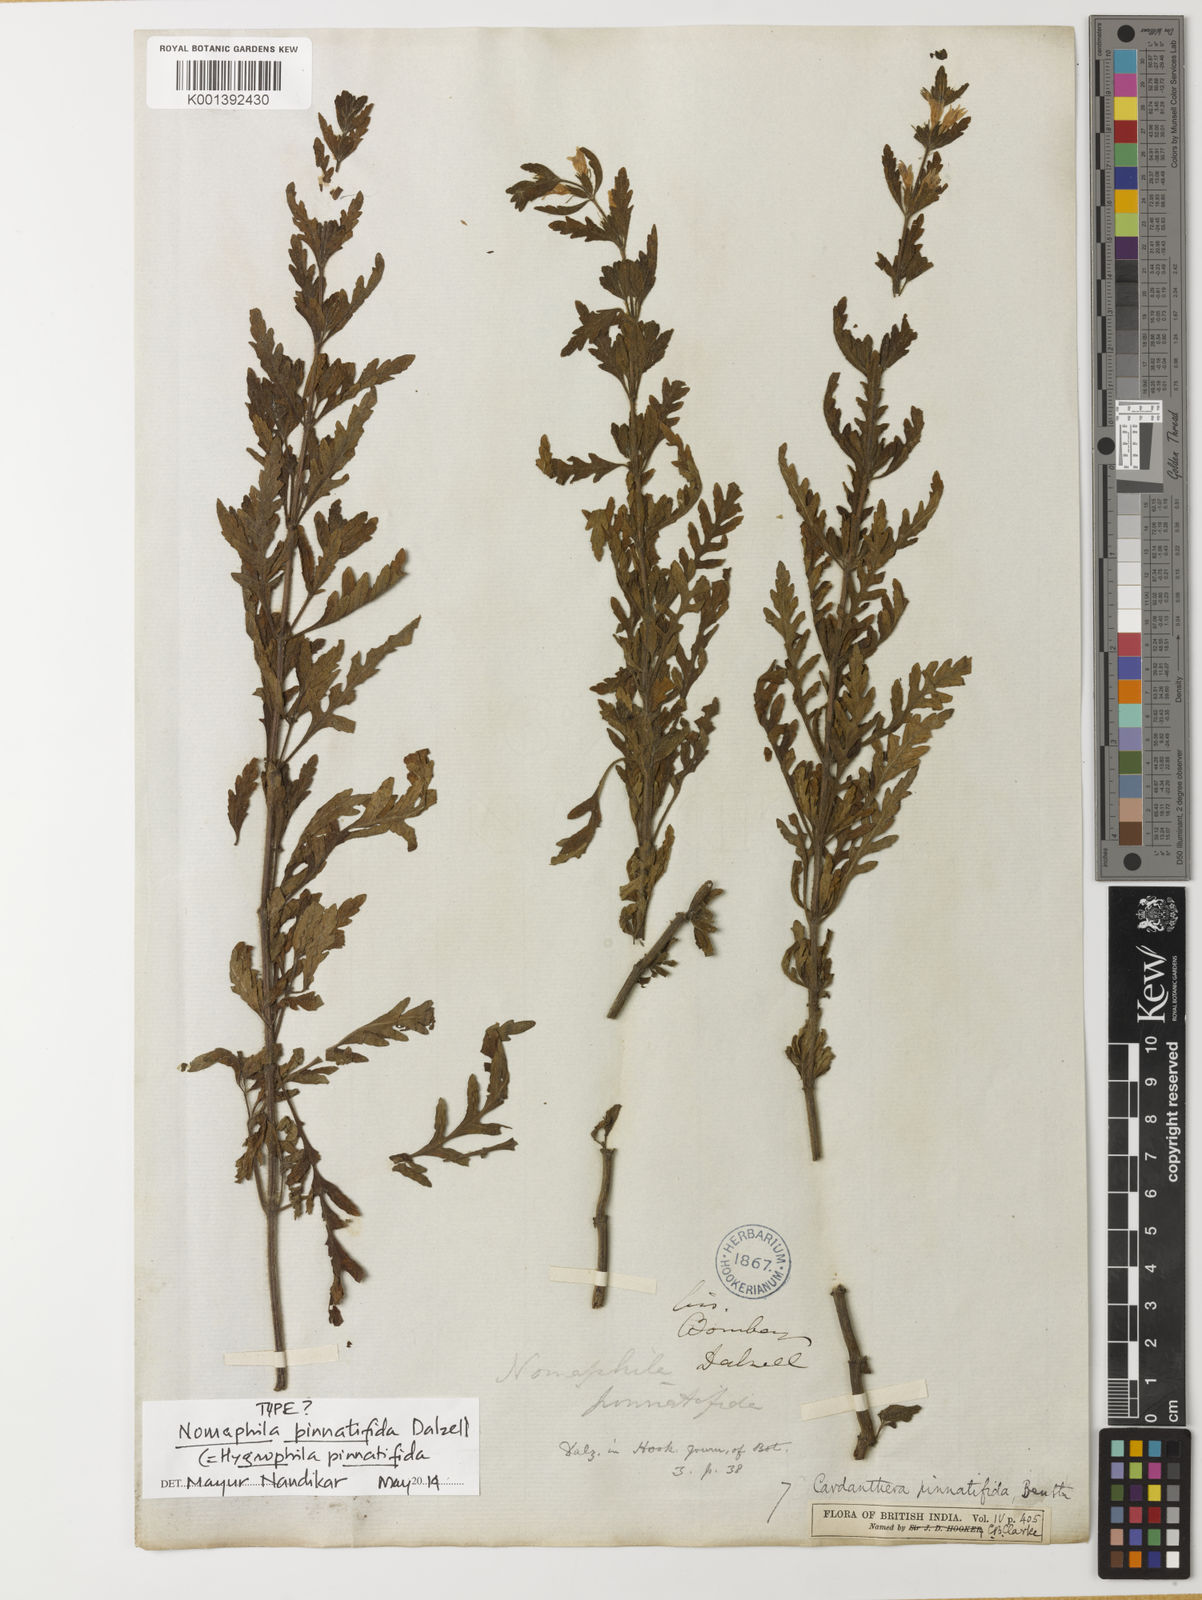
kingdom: Plantae
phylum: Tracheophyta
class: Magnoliopsida
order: Lamiales
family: Acanthaceae
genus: Hygrophila
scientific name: Hygrophila pinnatifida
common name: Indian swampweed
